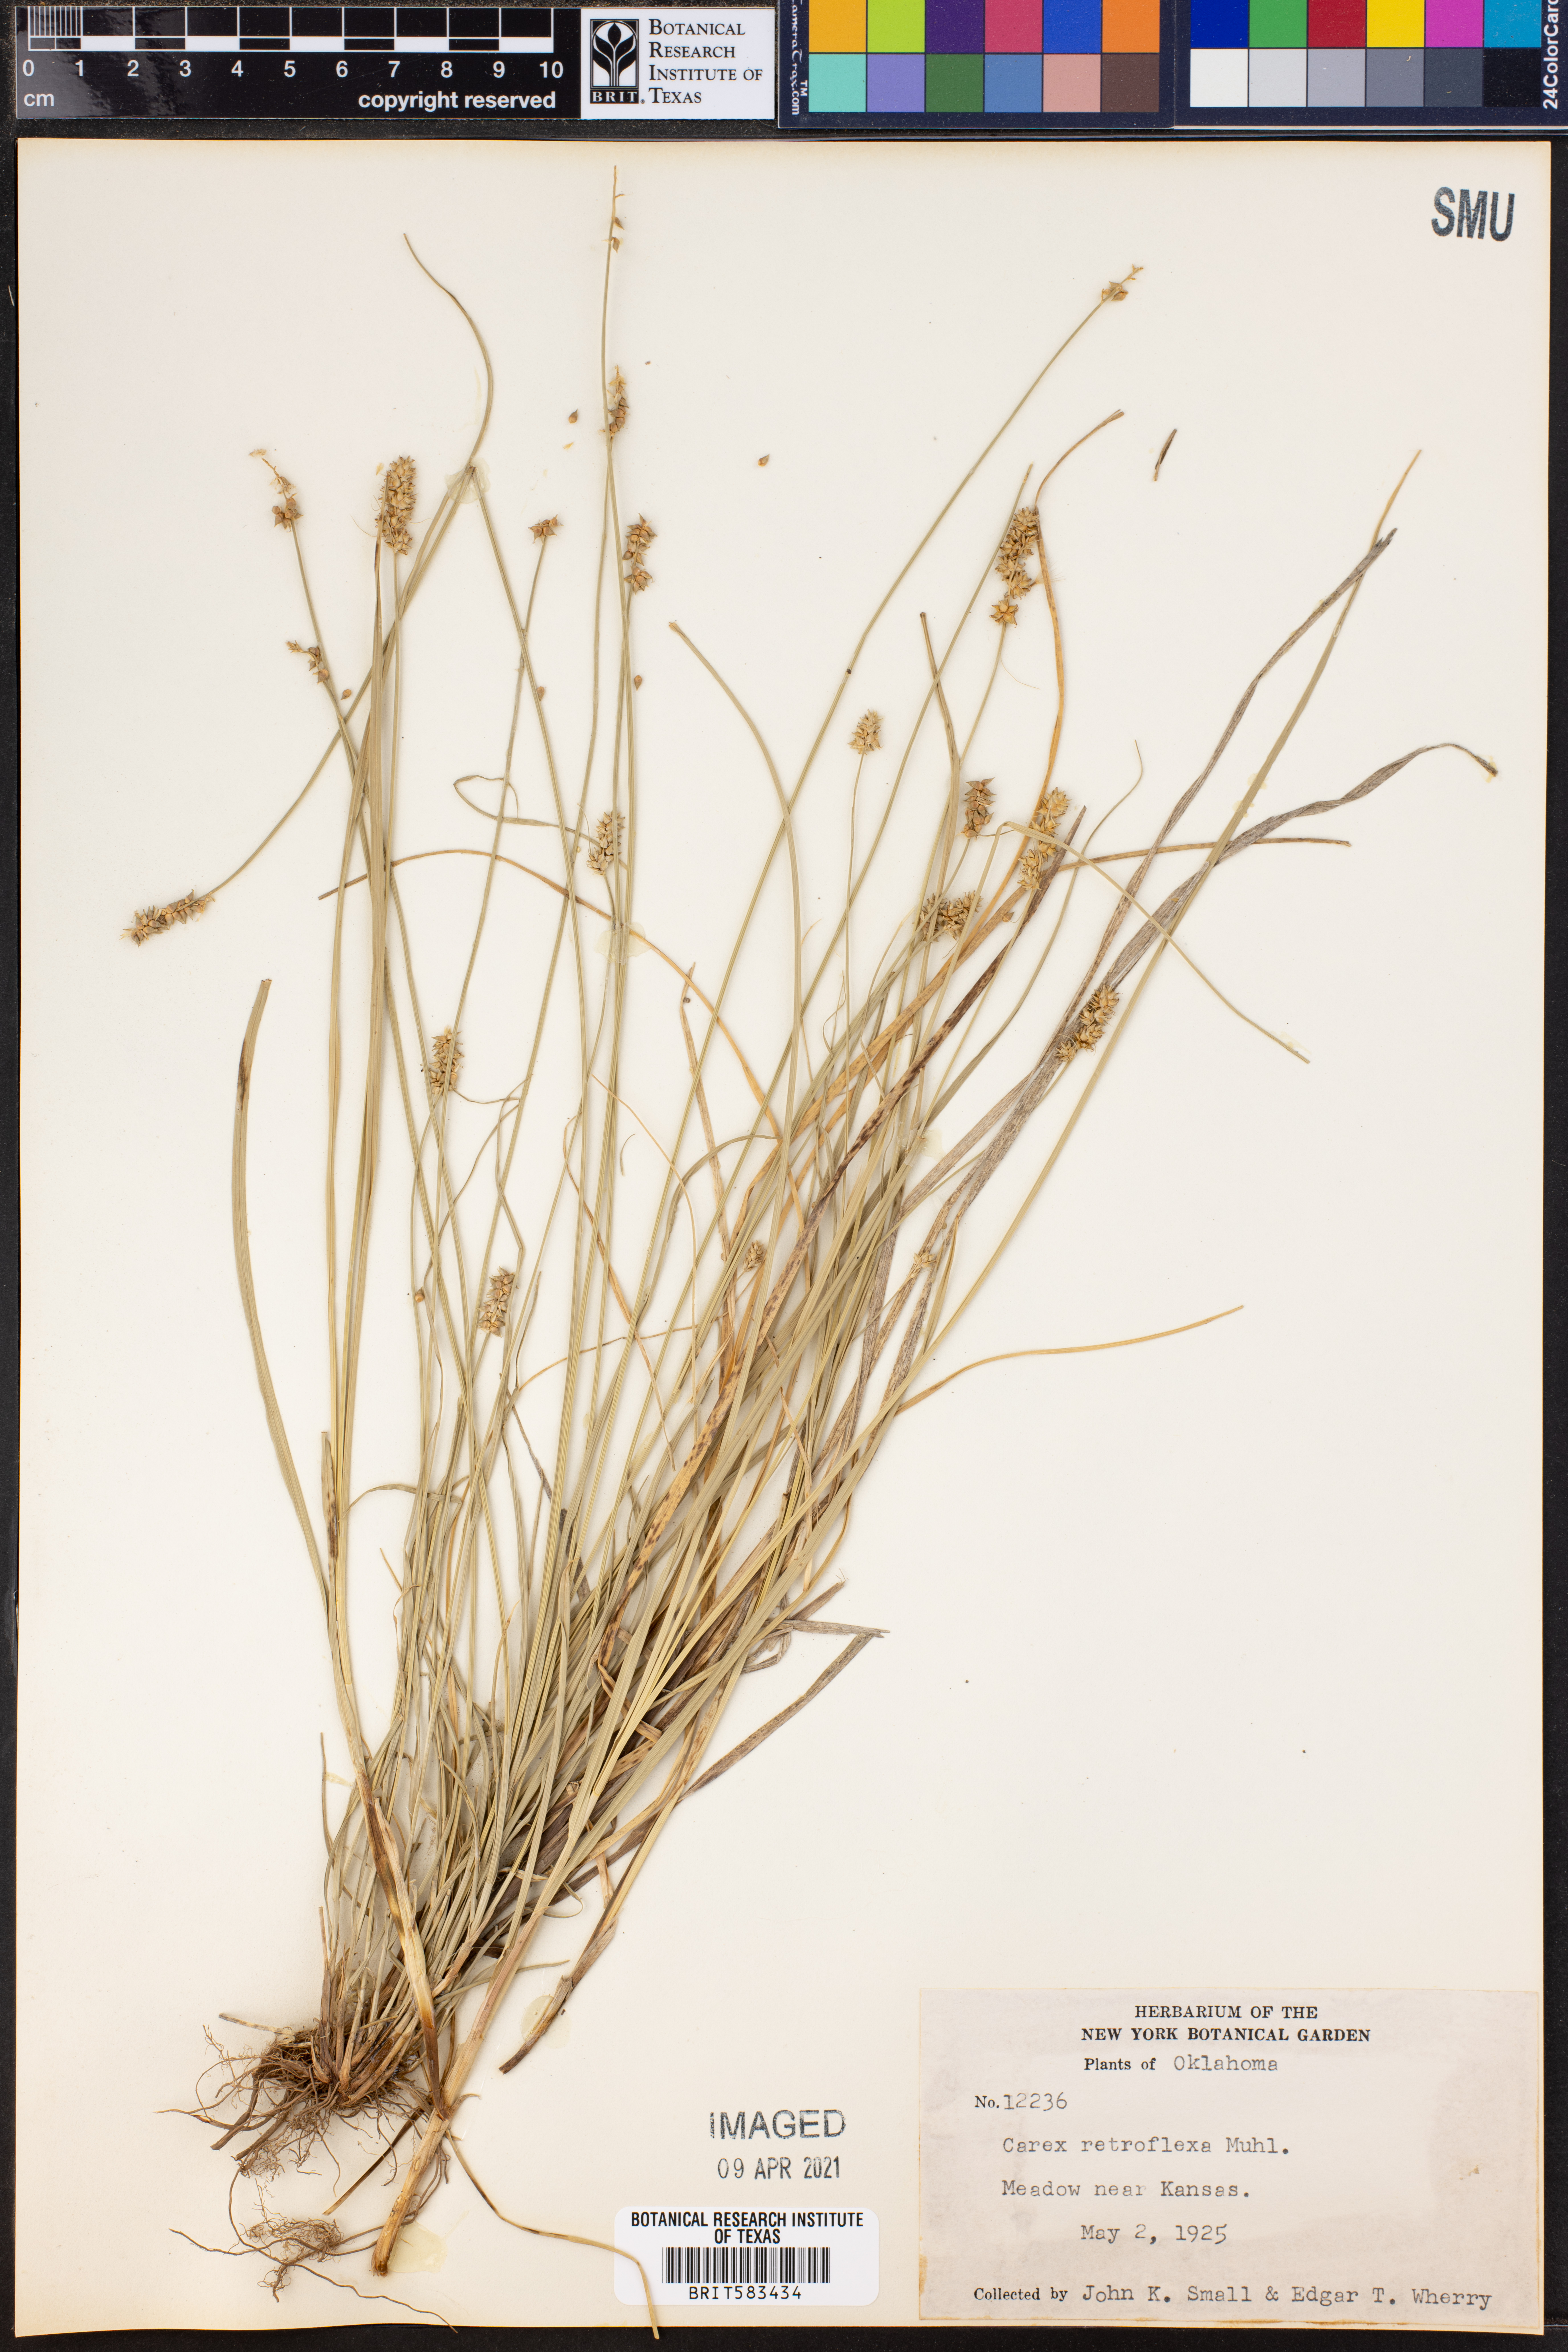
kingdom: Plantae
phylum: Tracheophyta
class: Liliopsida
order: Poales
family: Cyperaceae
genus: Carex
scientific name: Carex retroflexa
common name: Reflexed sedge
